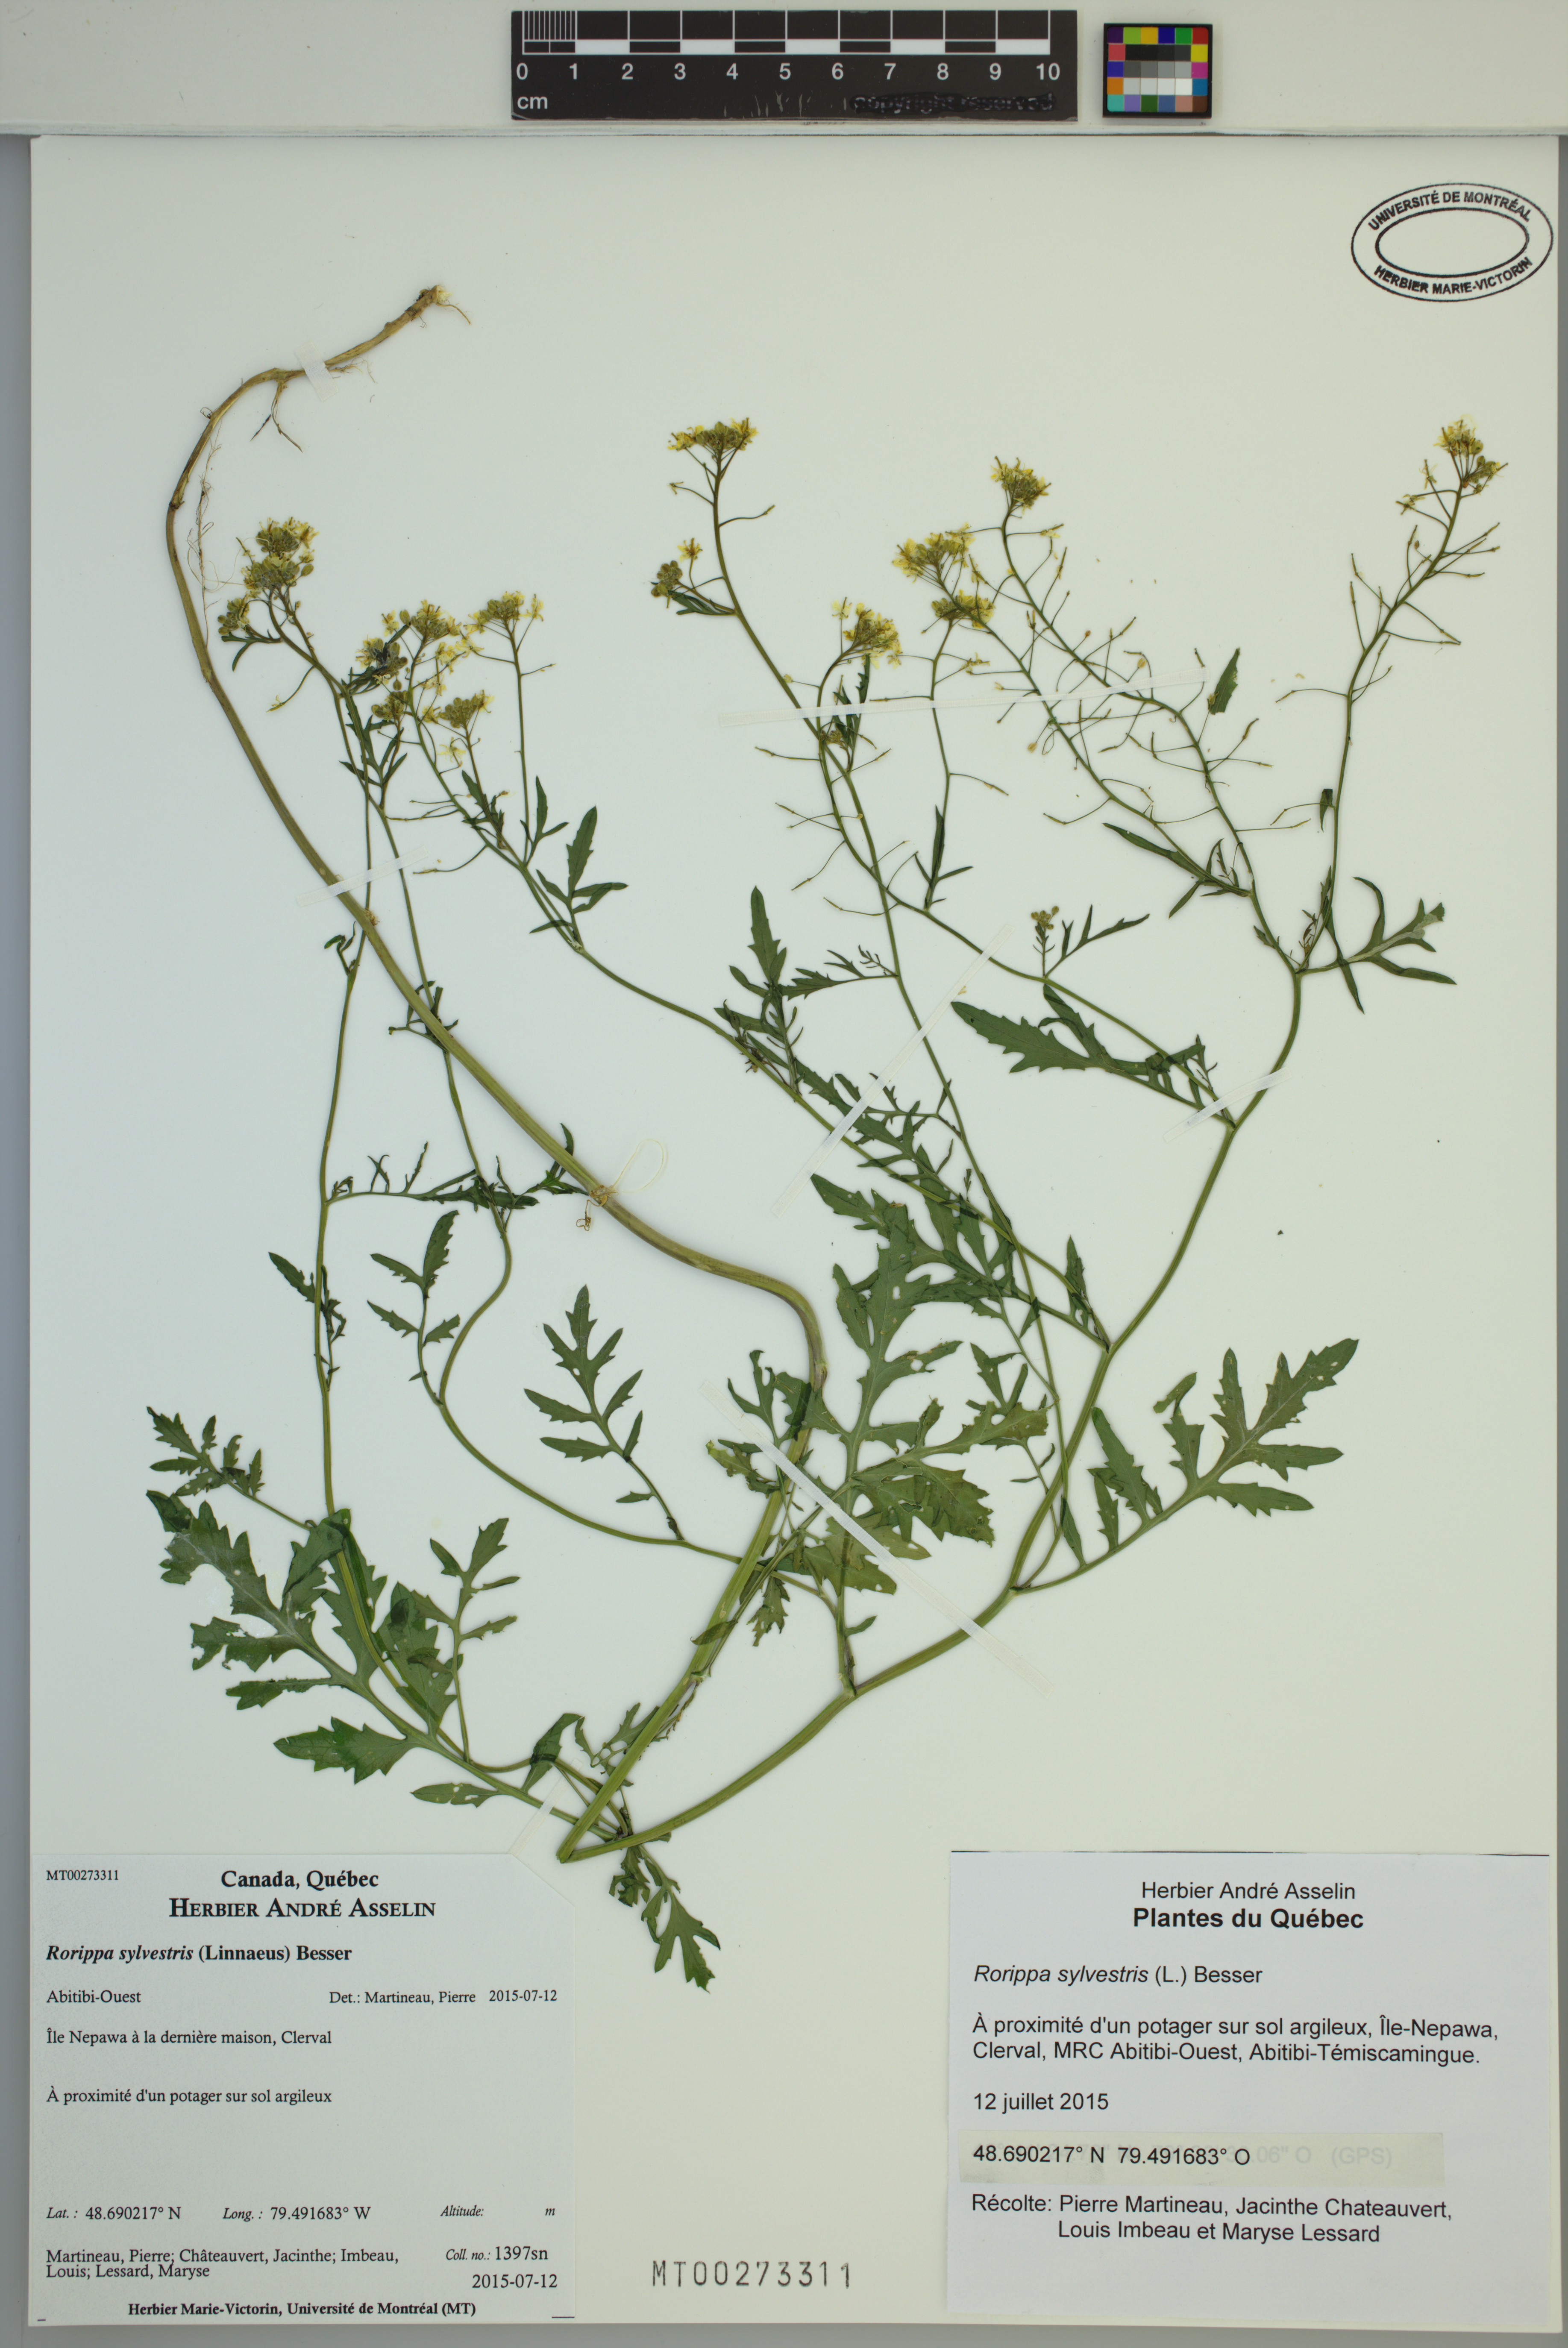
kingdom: Plantae
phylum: Tracheophyta
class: Magnoliopsida
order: Brassicales
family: Brassicaceae
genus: Rorippa
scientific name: Rorippa sylvestris
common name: Creeping yellowcress
